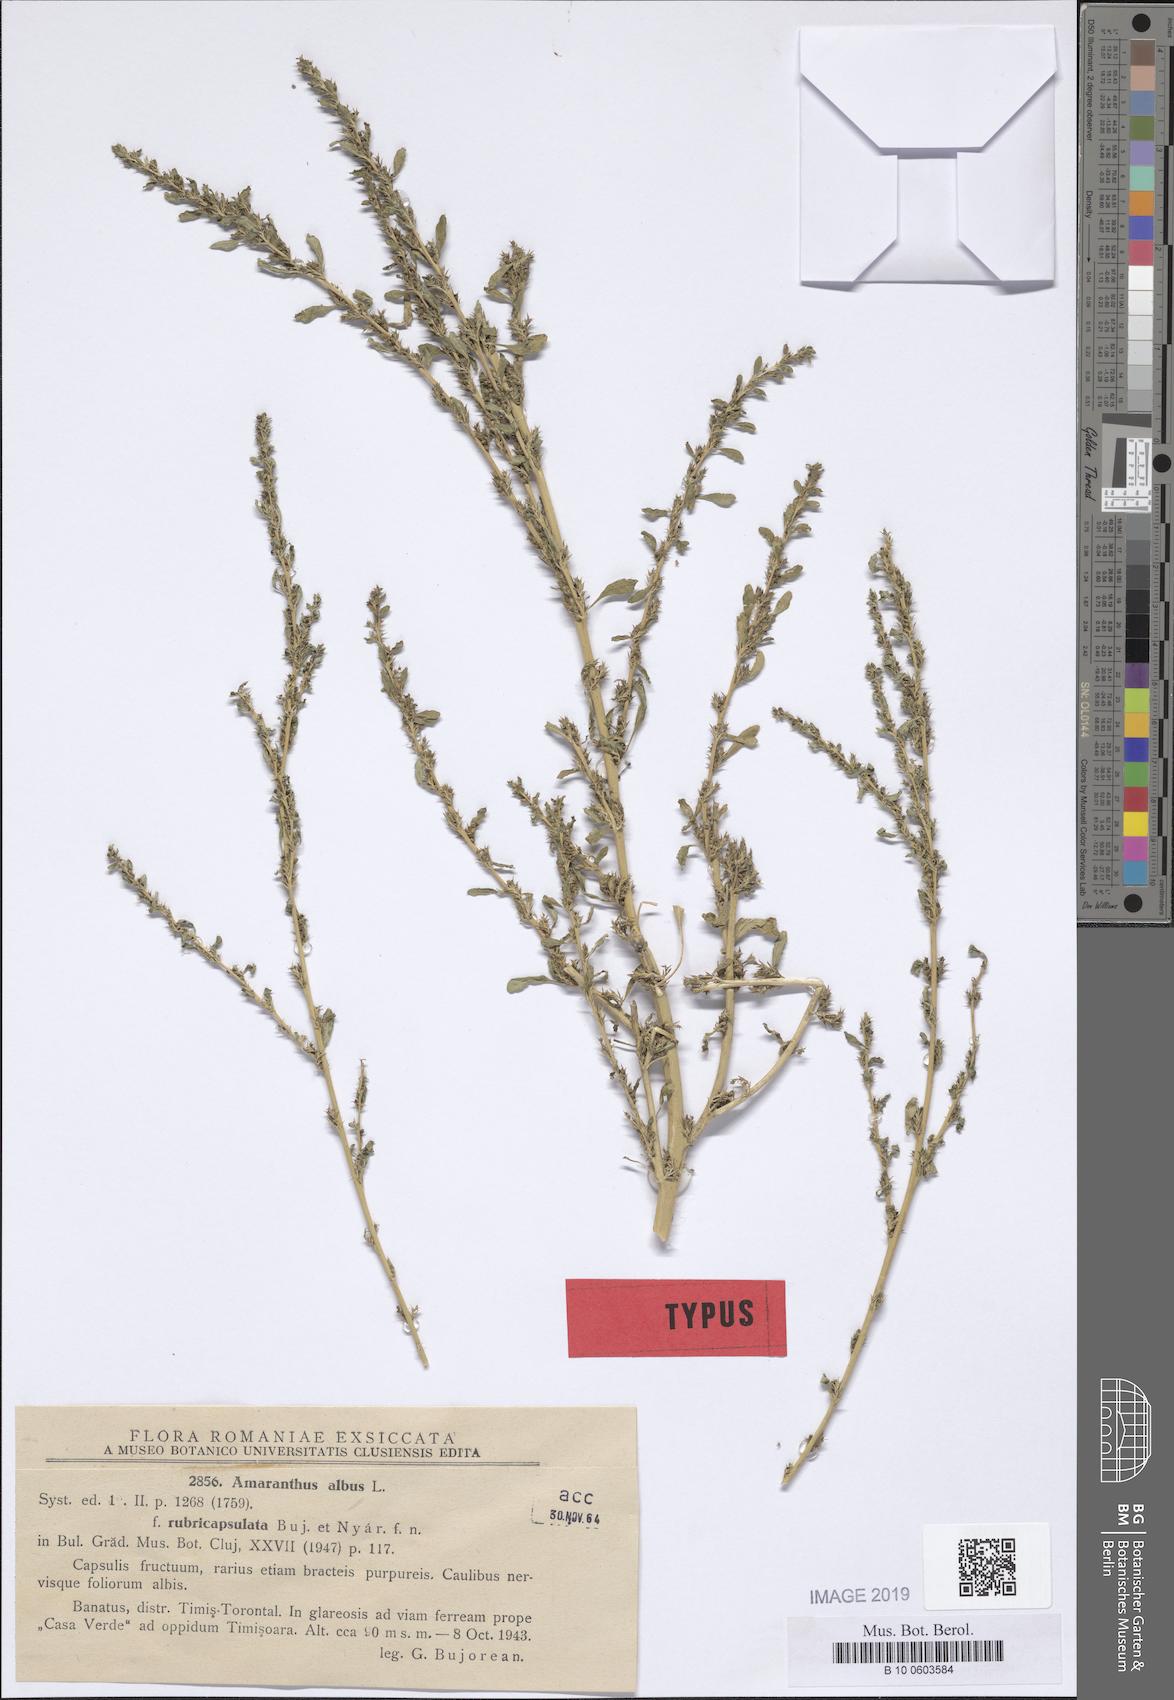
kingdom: Plantae
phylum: Tracheophyta
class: Magnoliopsida
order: Caryophyllales
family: Amaranthaceae
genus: Amaranthus
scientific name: Amaranthus albus
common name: White pigweed
